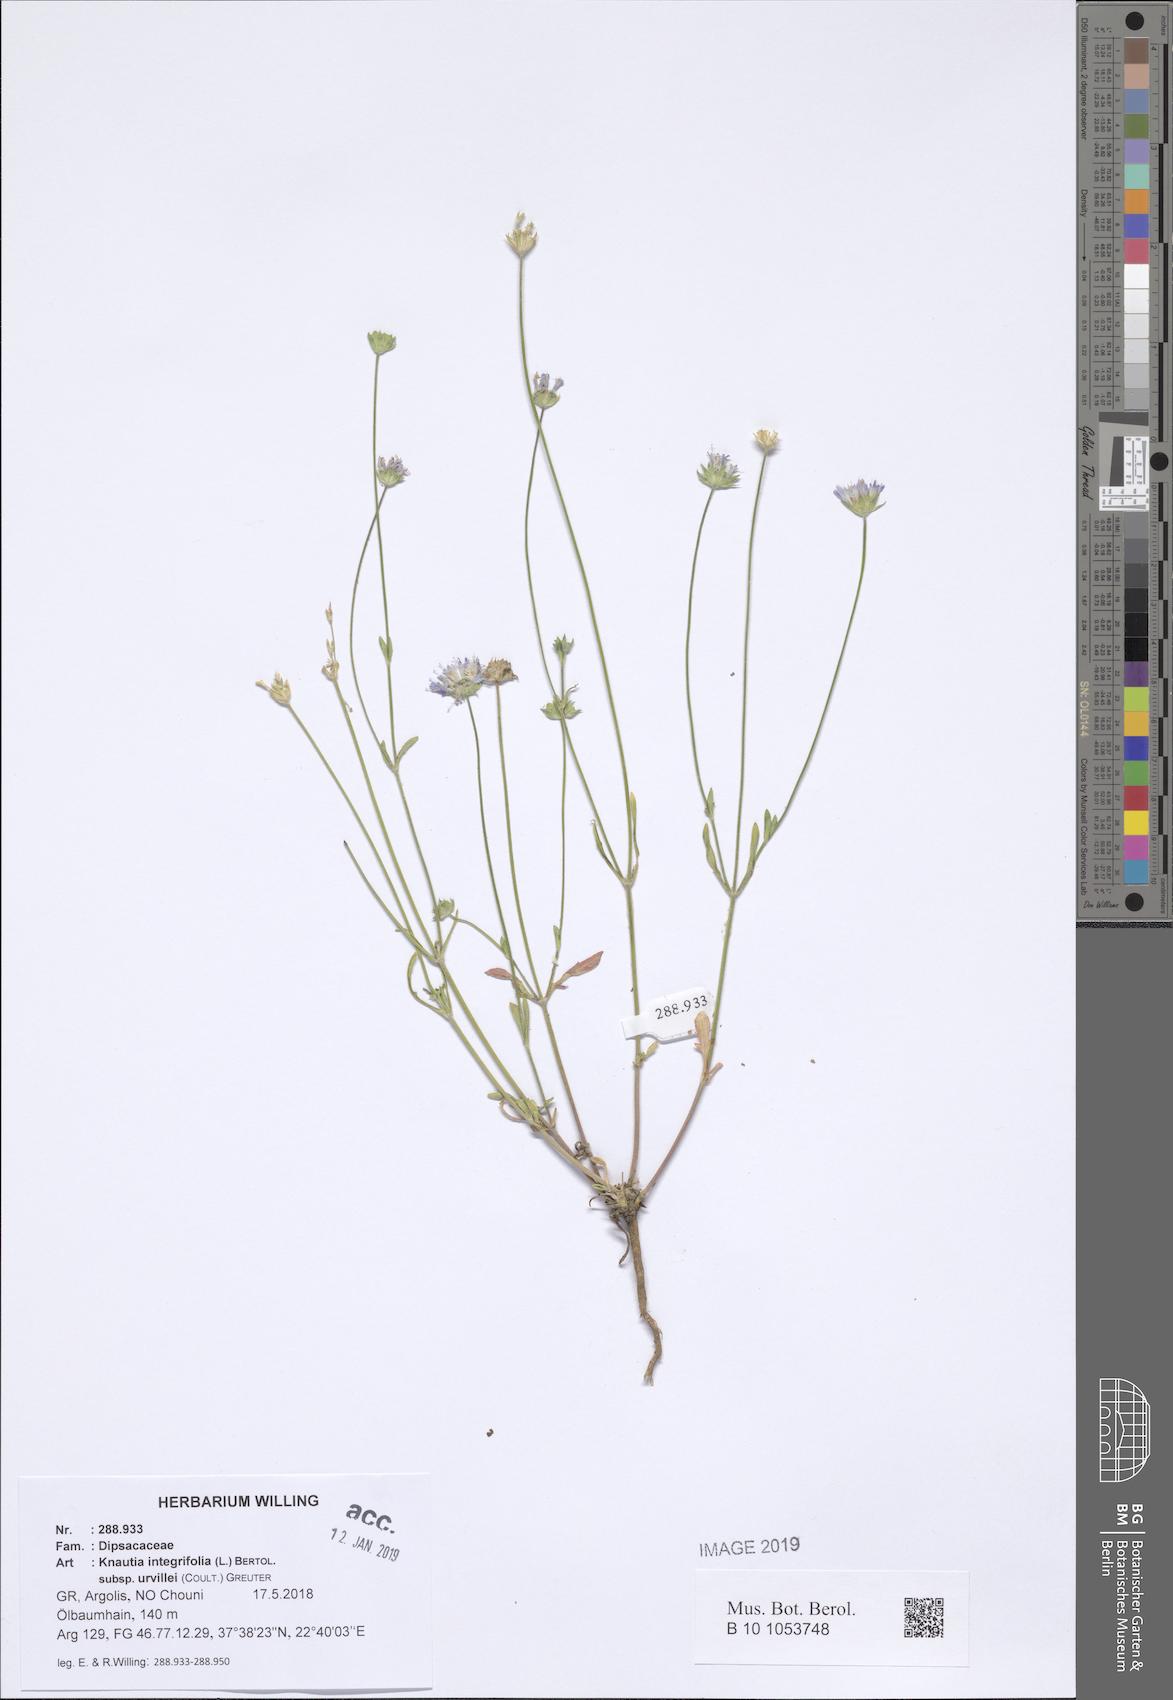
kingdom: Plantae
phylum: Tracheophyta
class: Magnoliopsida
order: Dipsacales
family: Caprifoliaceae
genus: Knautia
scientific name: Knautia integrifolia
